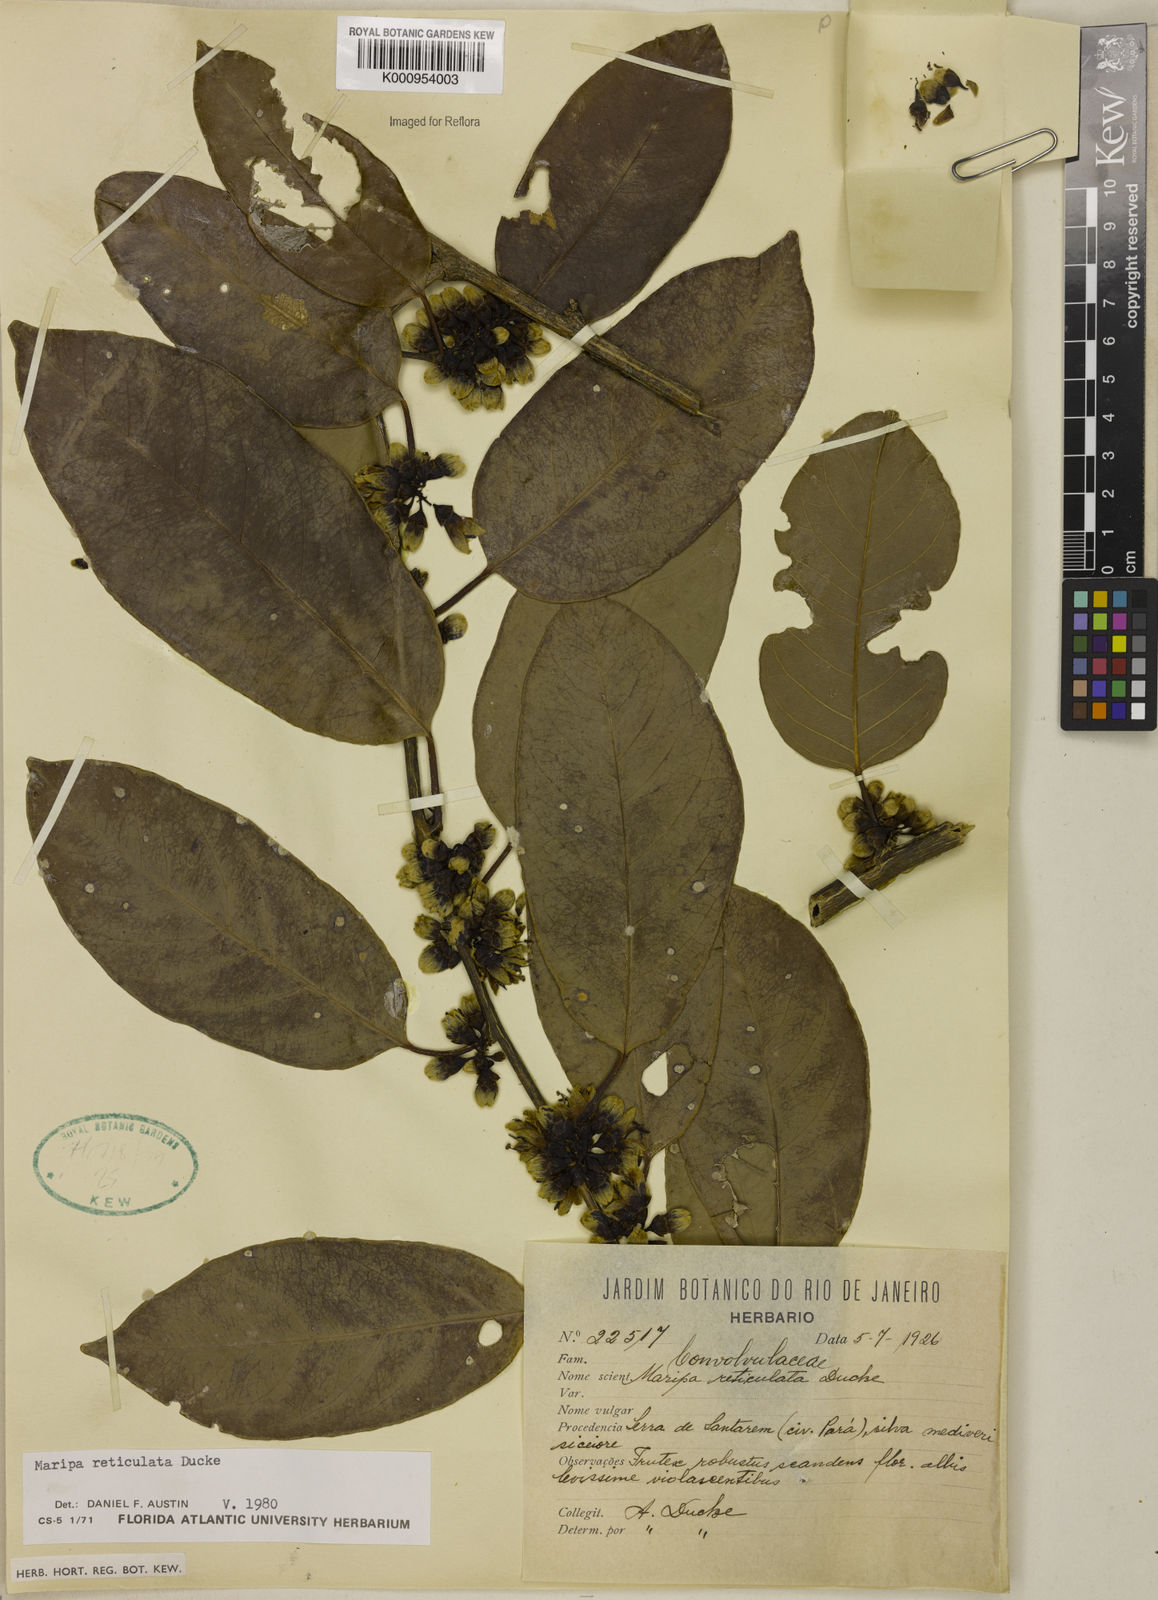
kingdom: Plantae
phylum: Tracheophyta
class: Magnoliopsida
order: Solanales
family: Convolvulaceae
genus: Maripa
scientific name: Maripa reticulata
